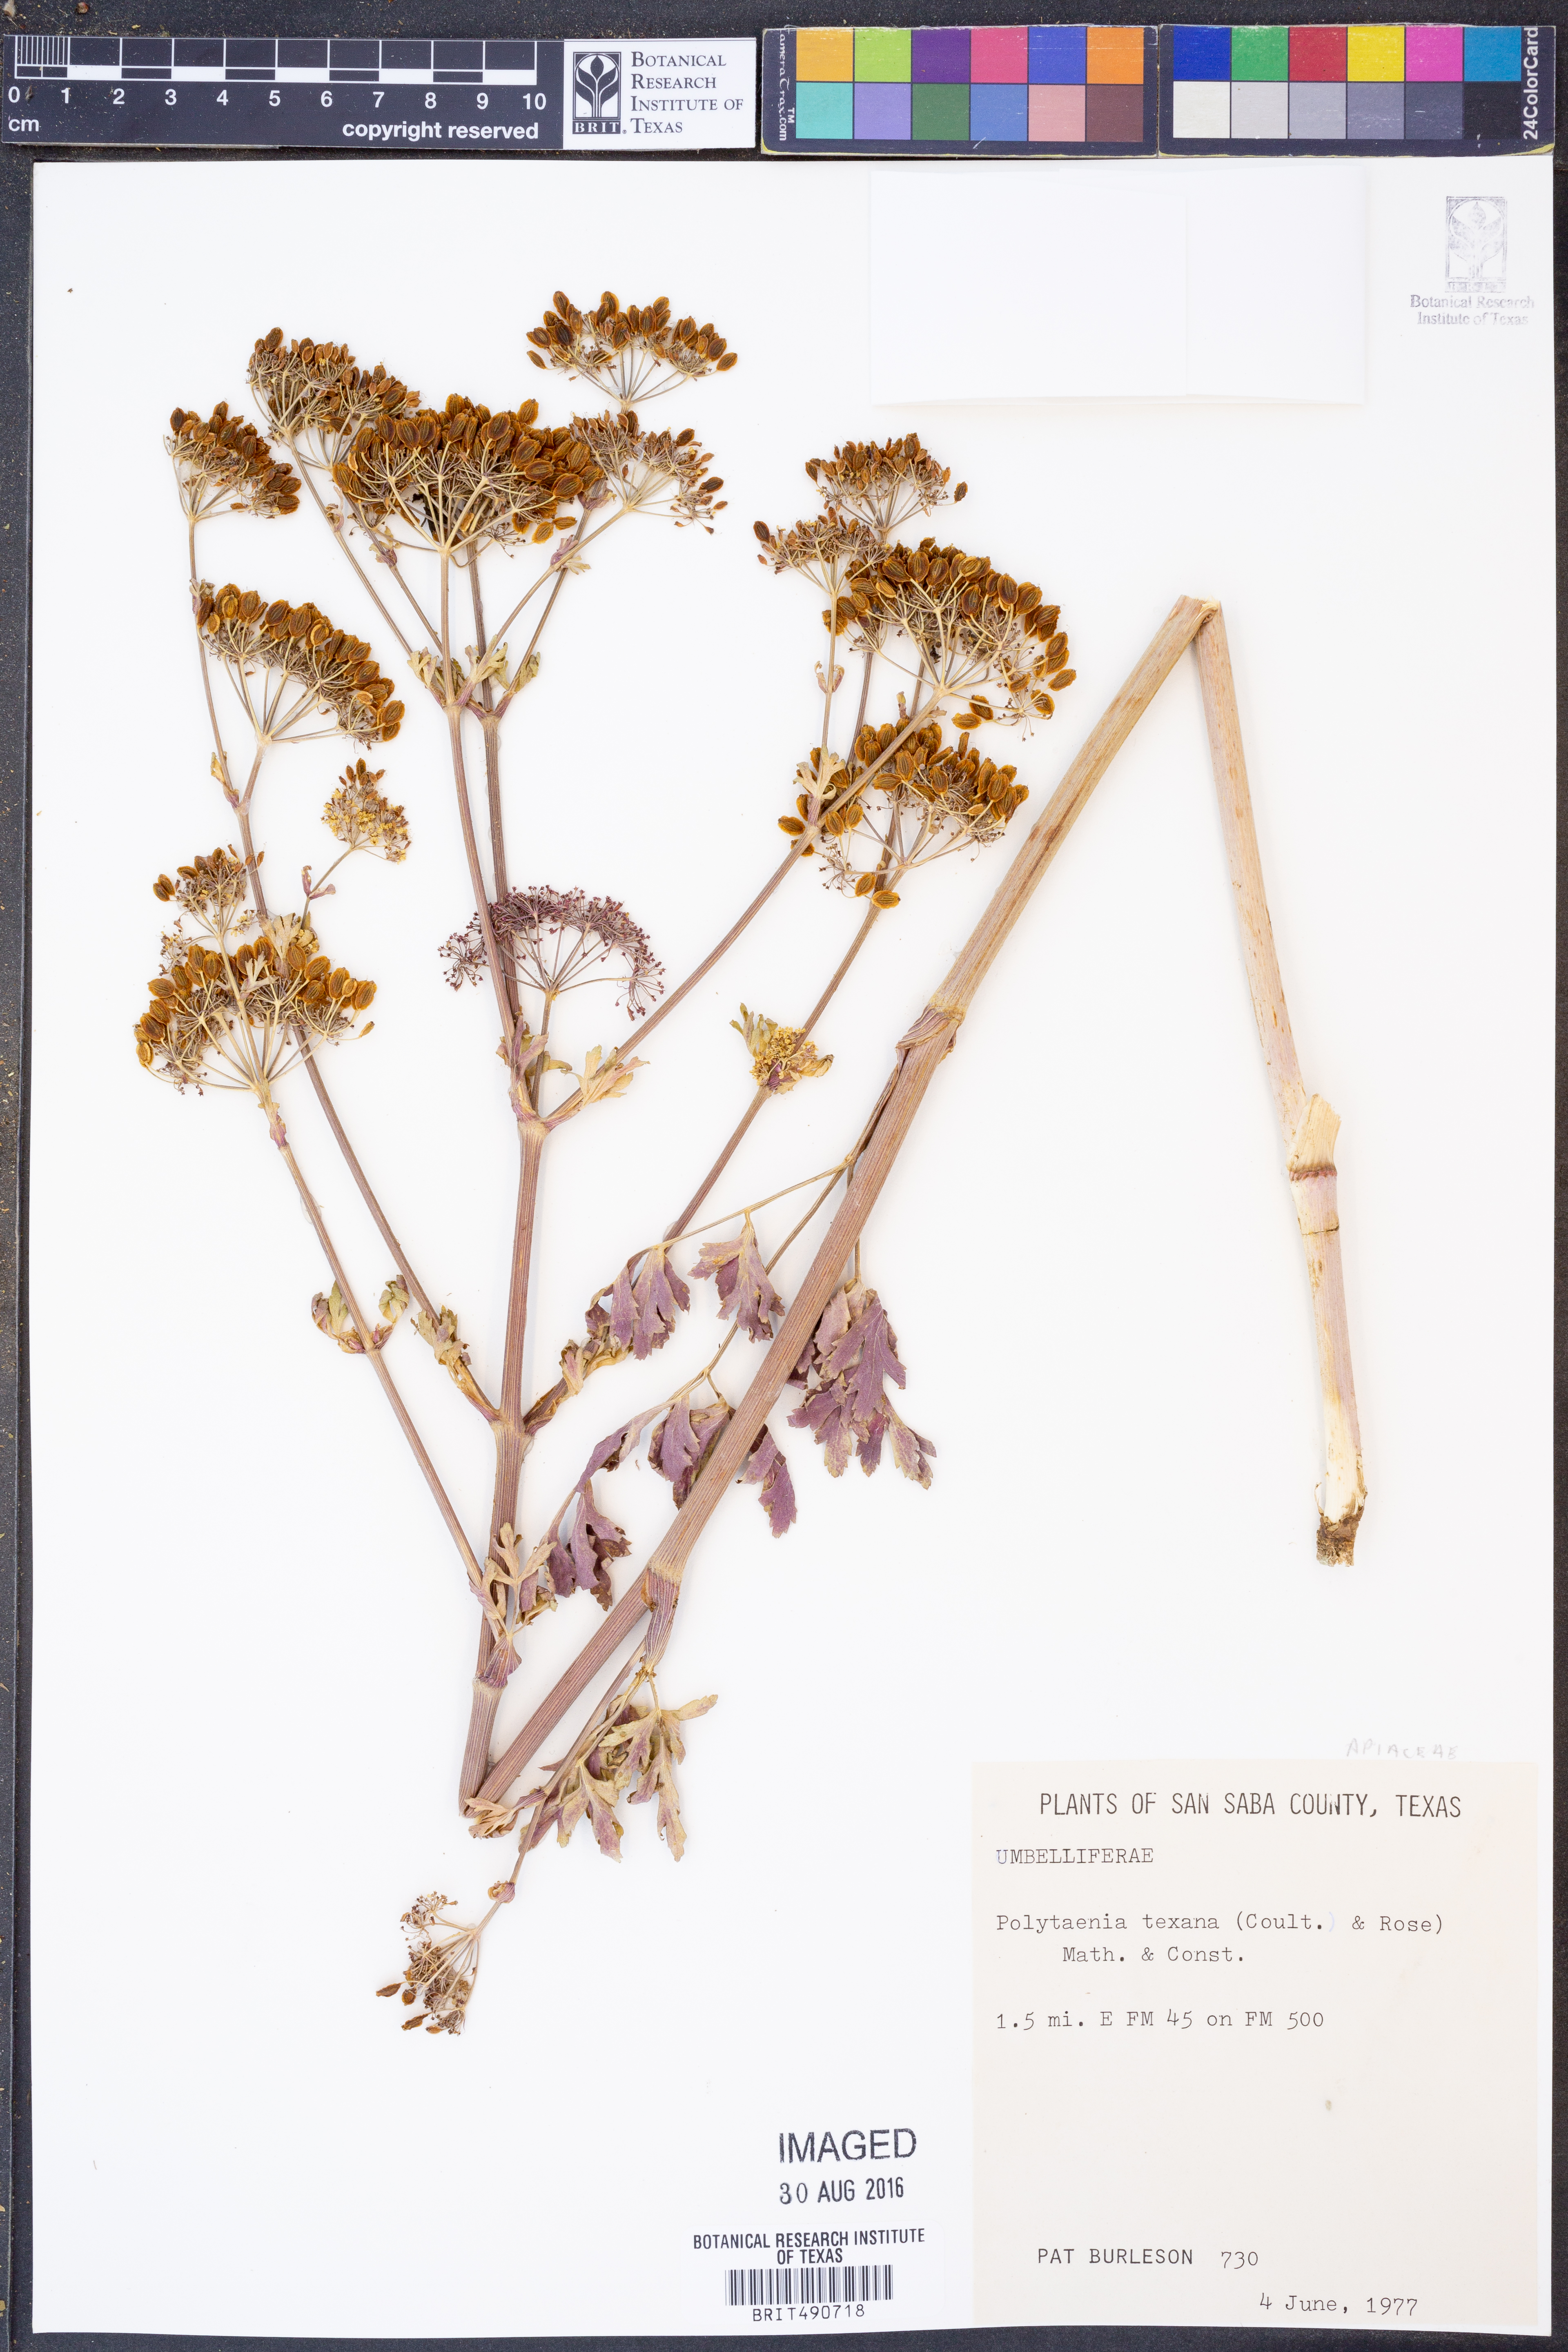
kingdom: Plantae
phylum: Tracheophyta
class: Magnoliopsida
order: Apiales
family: Apiaceae
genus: Polytaenia
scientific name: Polytaenia texana
